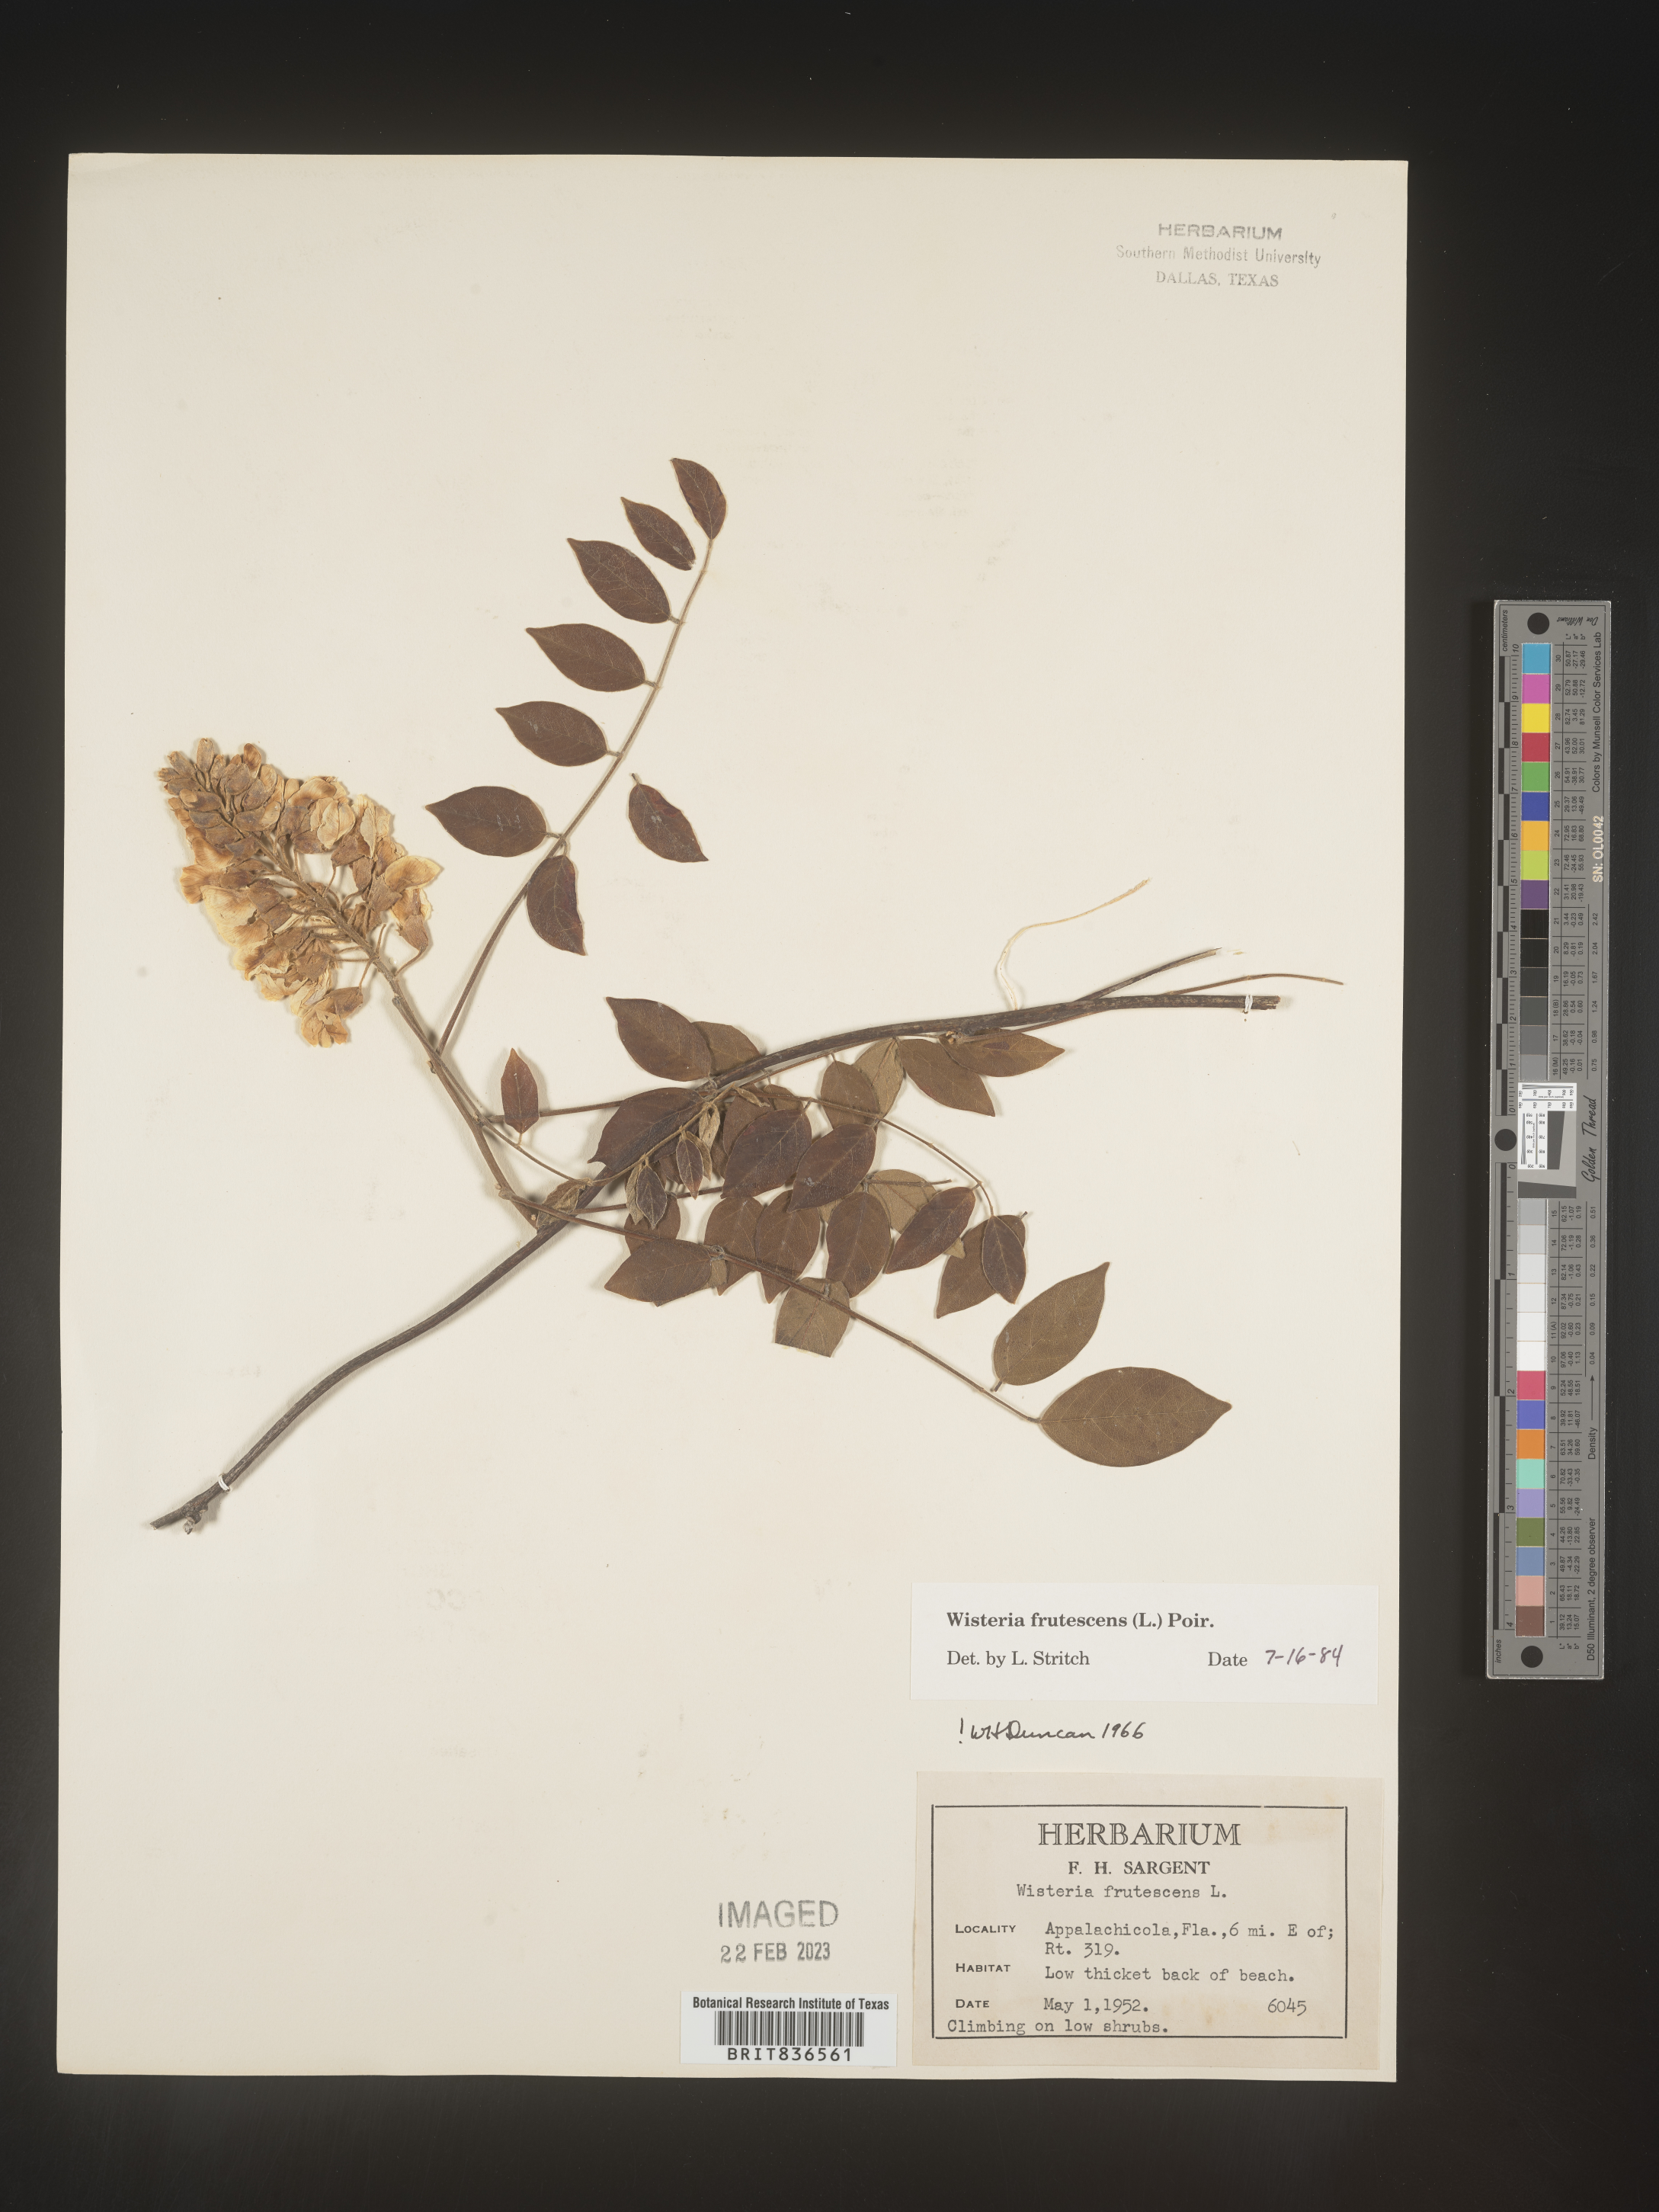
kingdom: Plantae
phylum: Tracheophyta
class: Magnoliopsida
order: Fabales
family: Fabaceae
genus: Wisteria
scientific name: Wisteria
